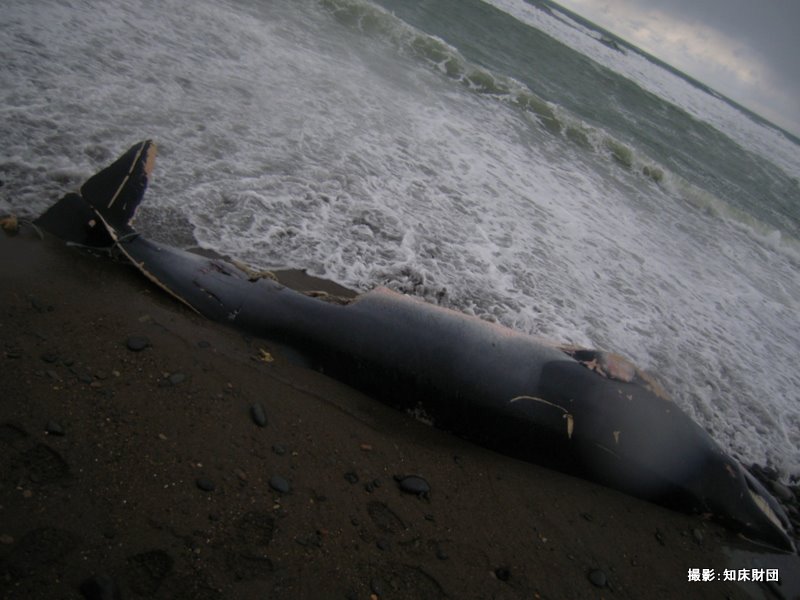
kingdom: Animalia
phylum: Chordata
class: Mammalia
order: Cetacea
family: Balaenopteridae
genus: Balaenoptera
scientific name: Balaenoptera acutorostrata
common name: Minke whale
